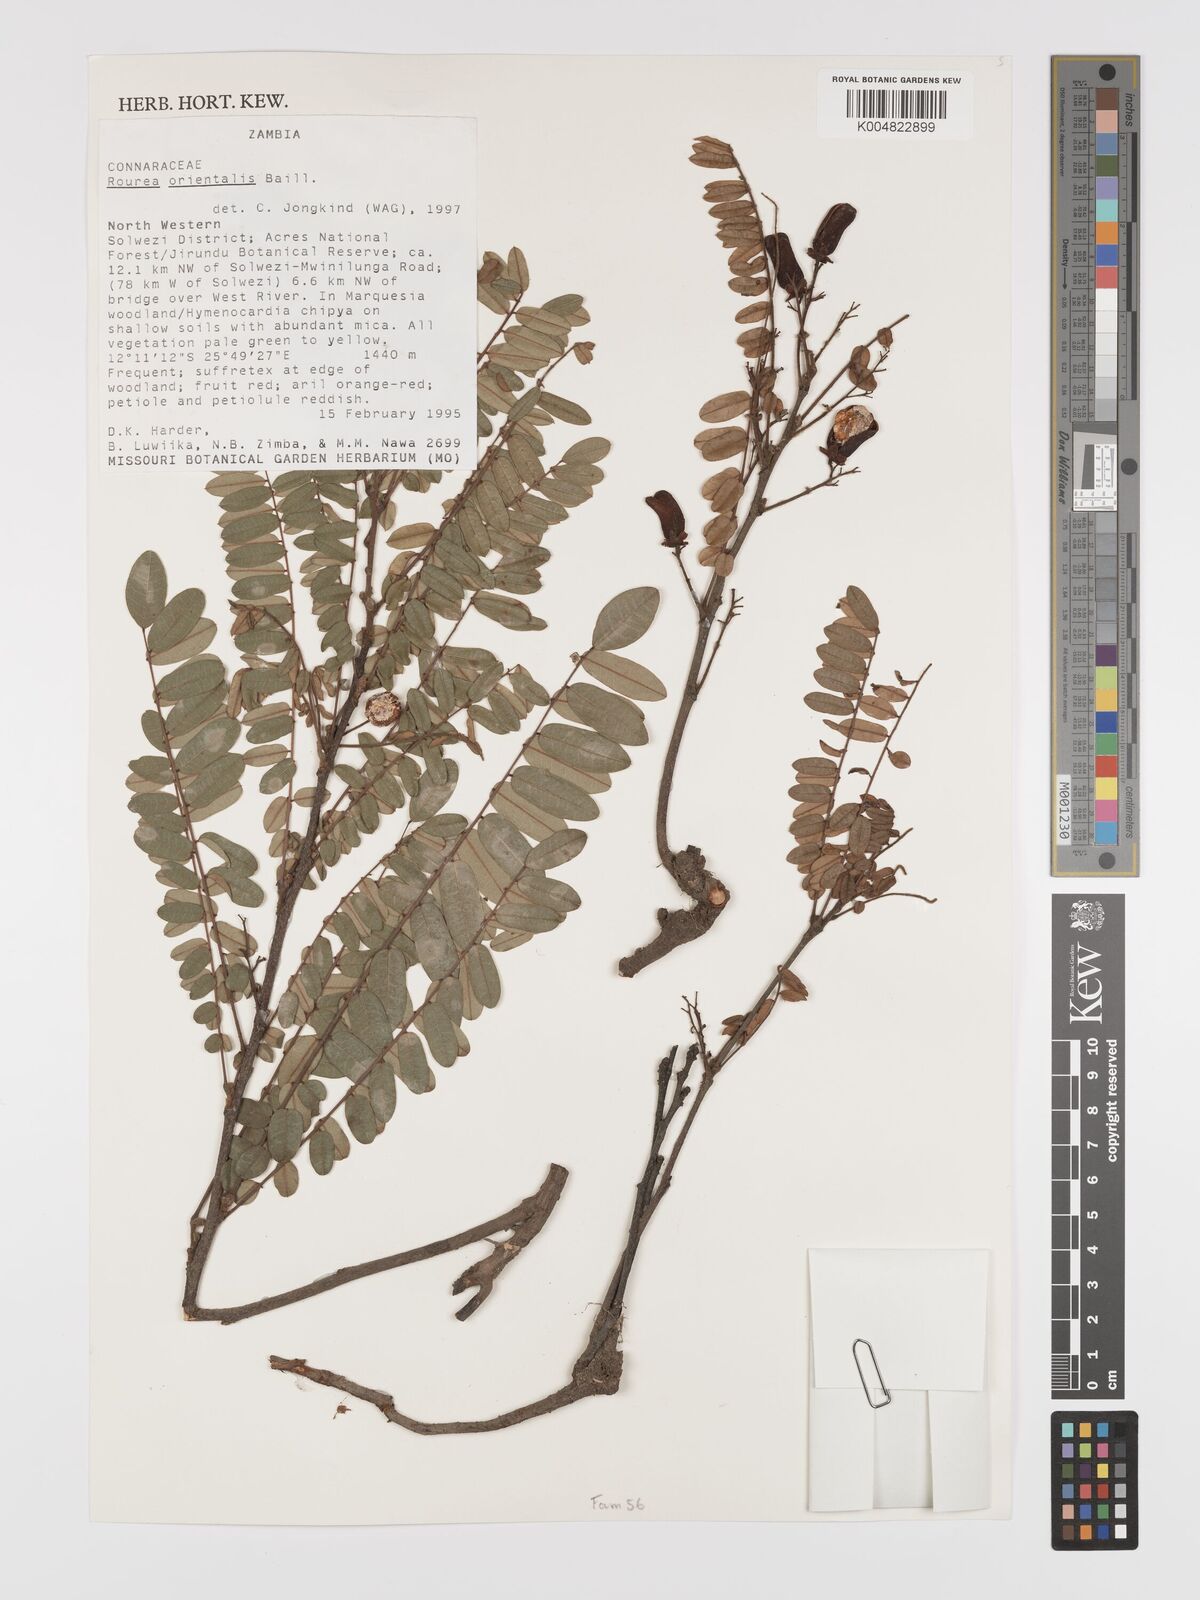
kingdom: Plantae
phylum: Tracheophyta
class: Magnoliopsida
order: Oxalidales
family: Connaraceae
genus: Rourea
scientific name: Rourea orientalis
